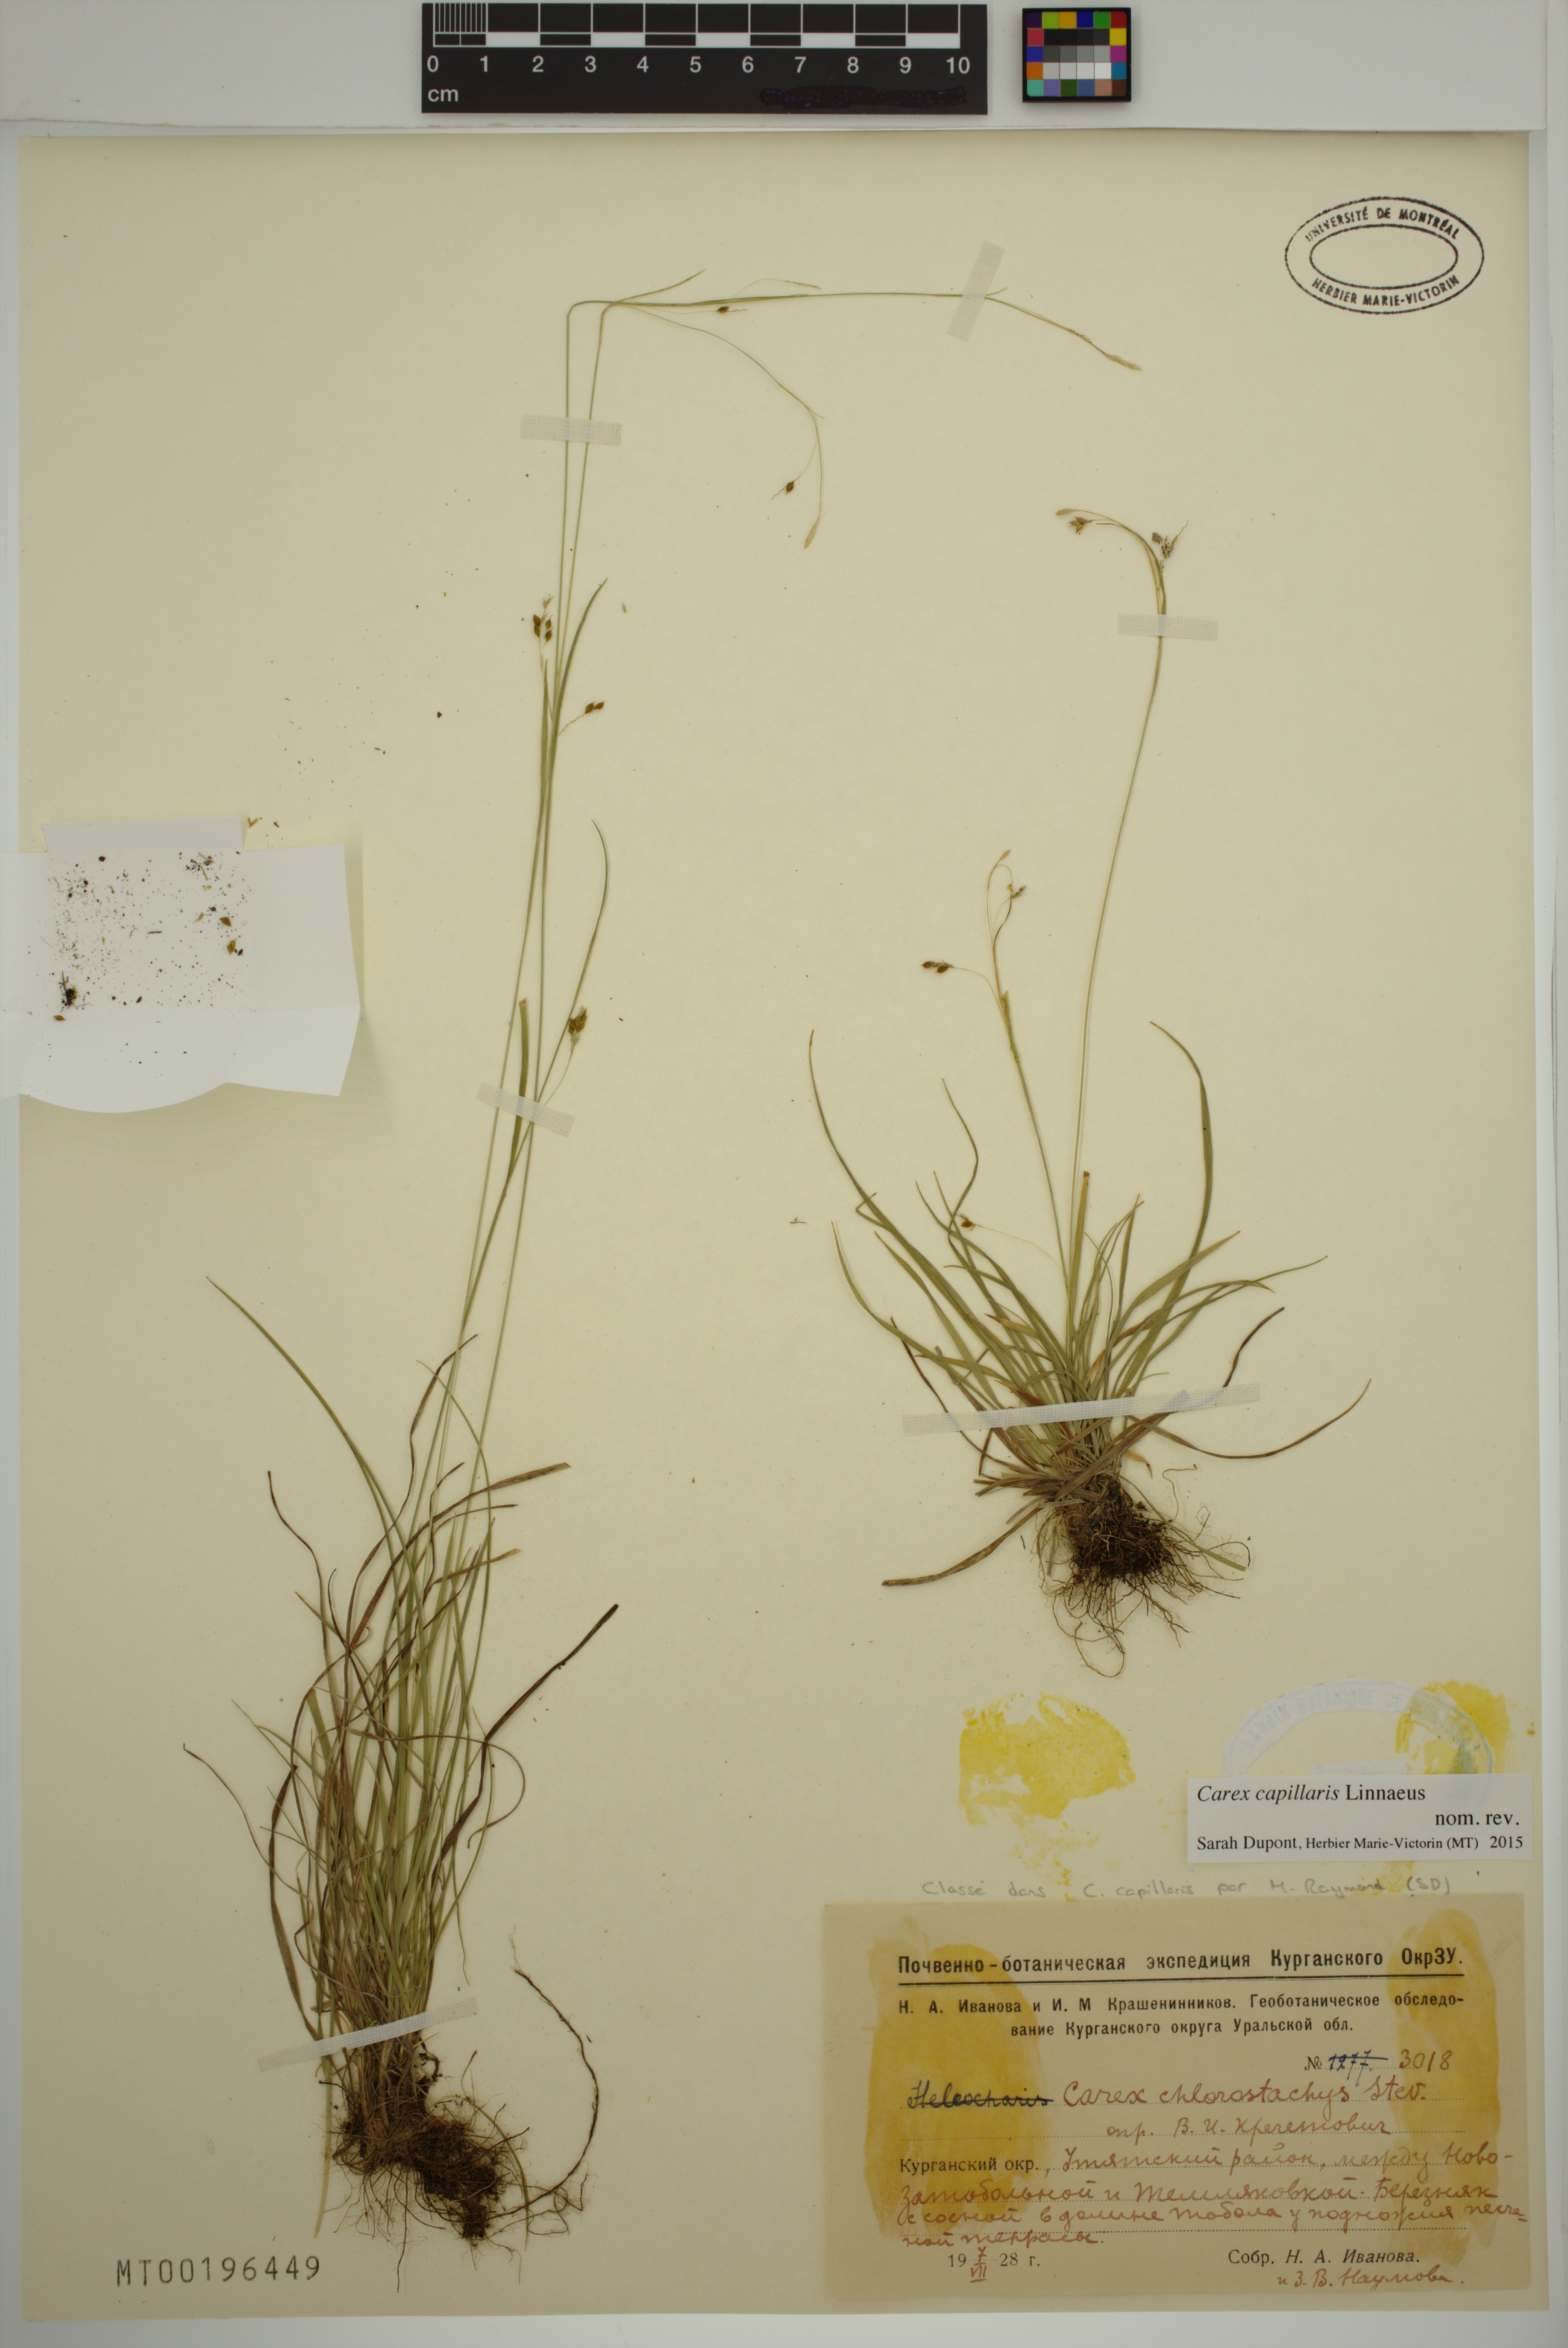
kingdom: Plantae
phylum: Tracheophyta
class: Liliopsida
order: Poales
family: Cyperaceae
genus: Carex
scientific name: Carex capillaris
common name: Hair sedge
